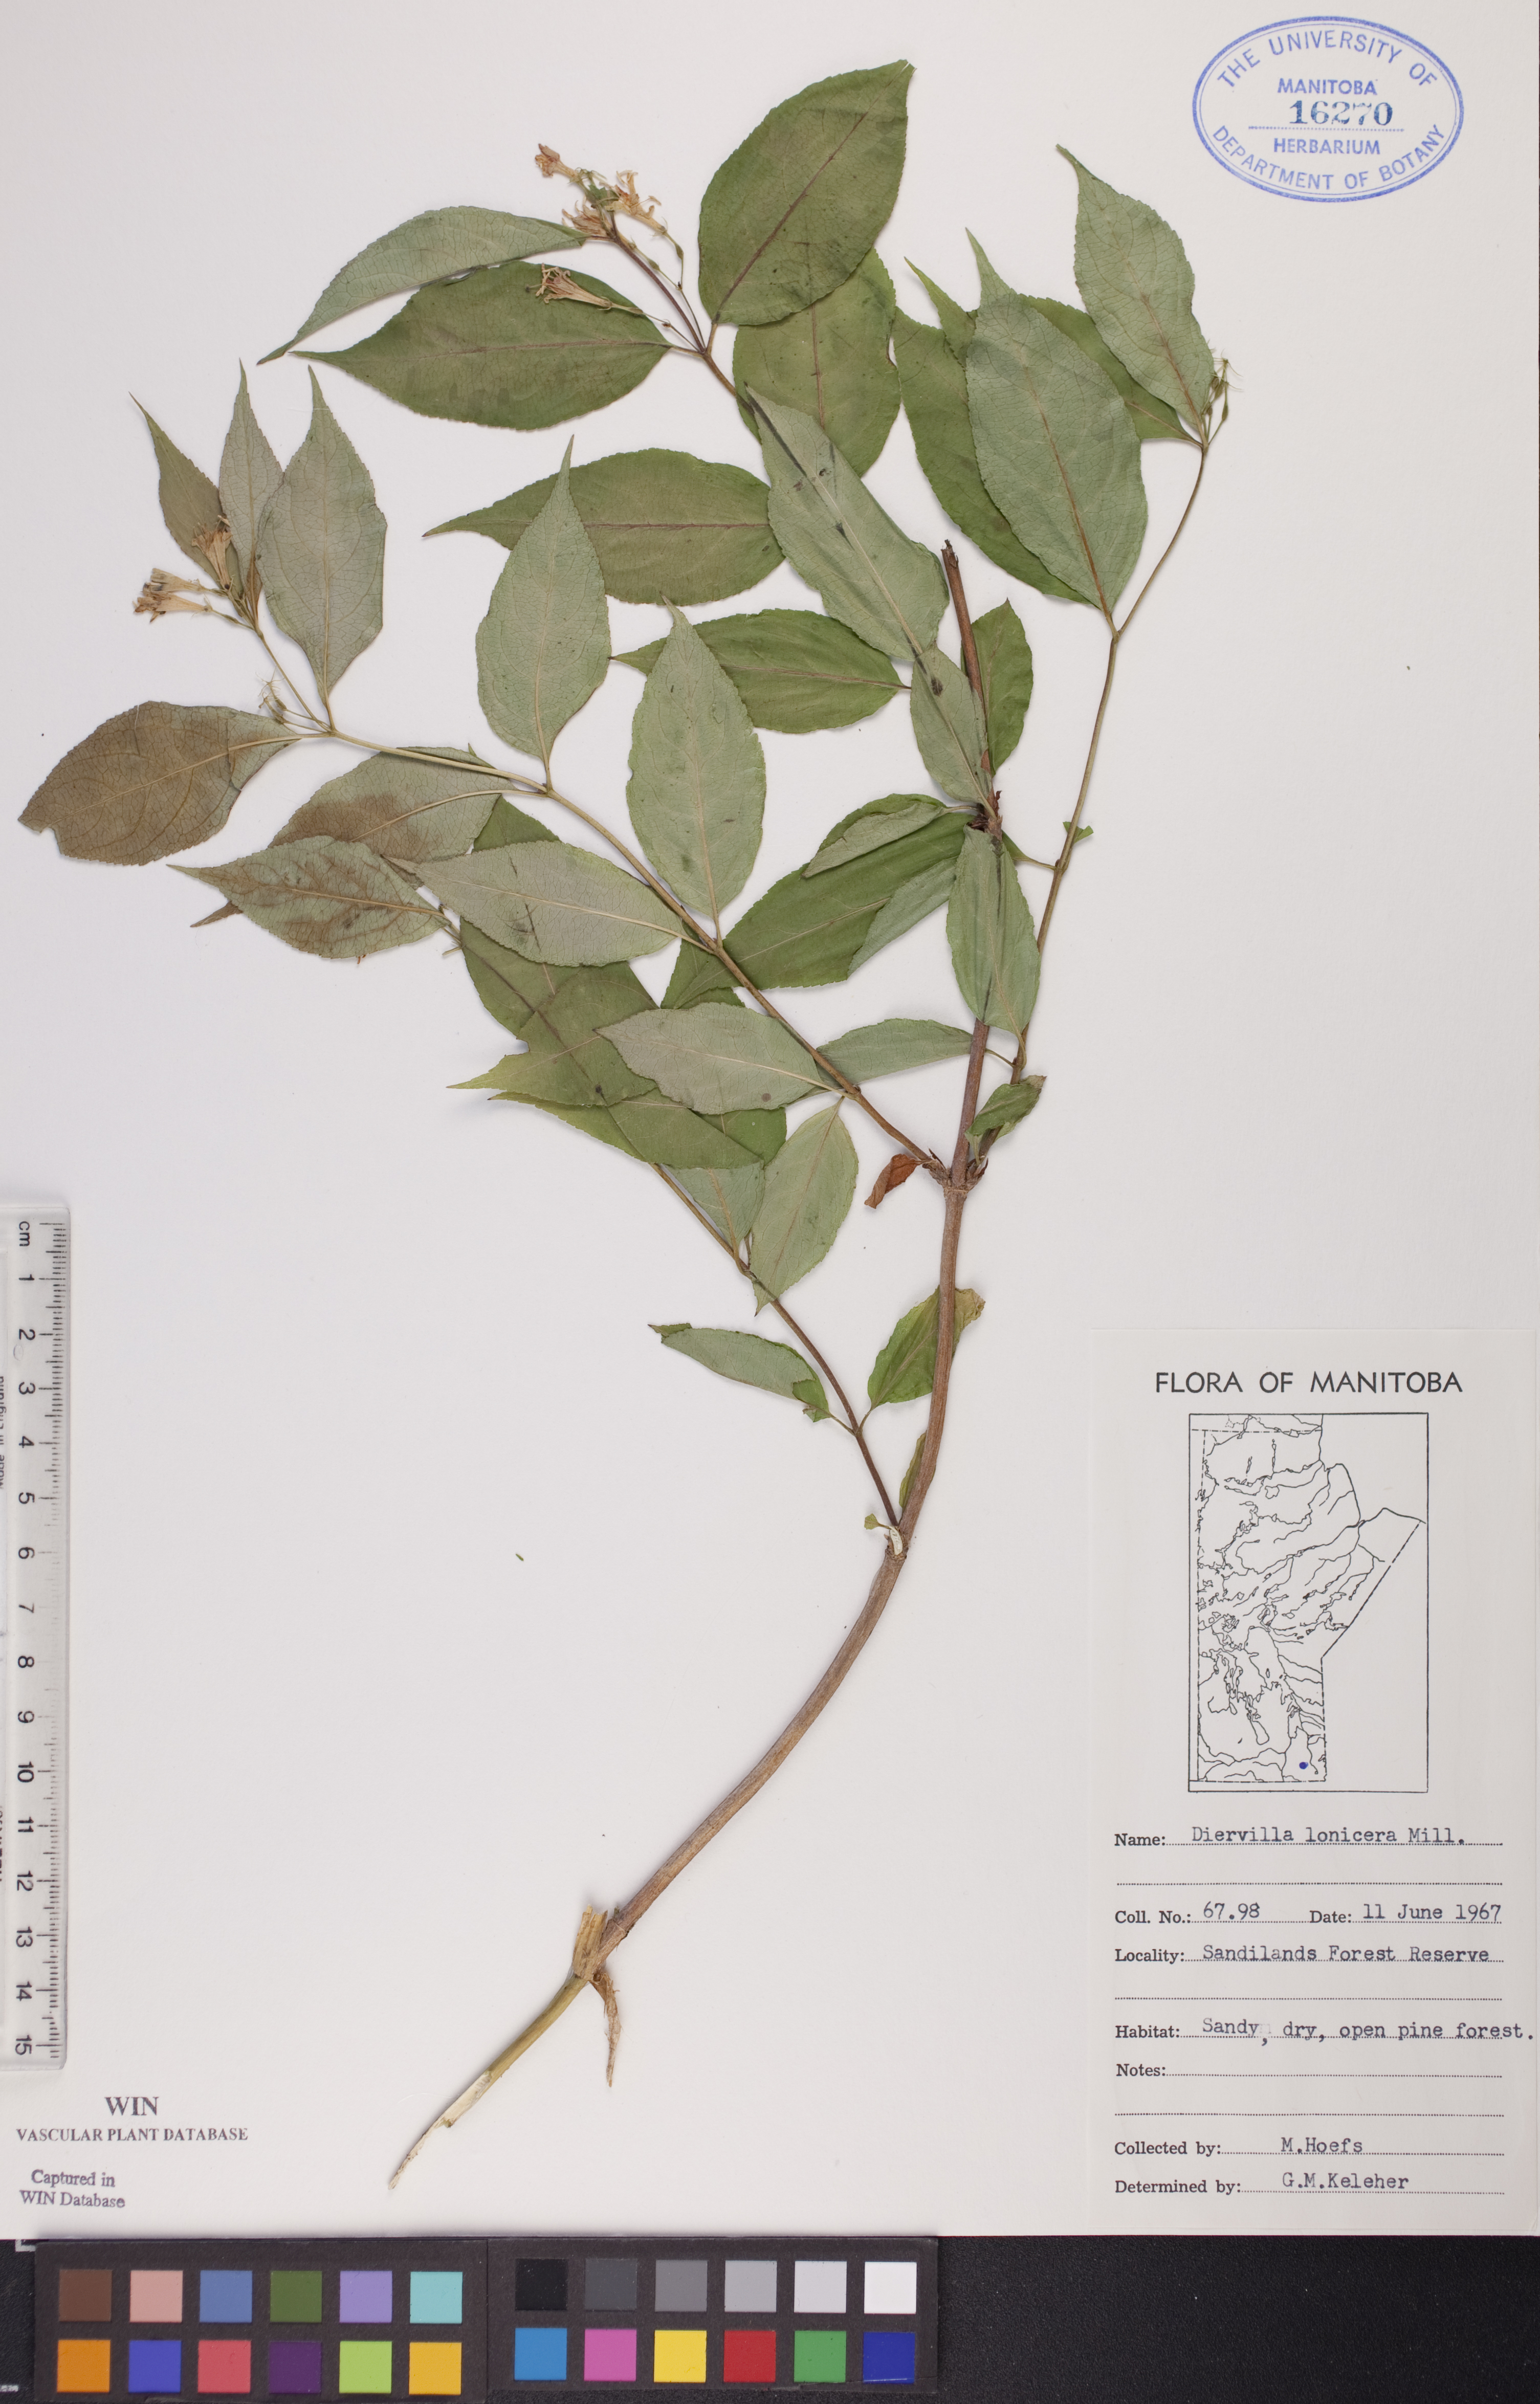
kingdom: Plantae
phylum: Tracheophyta
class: Magnoliopsida
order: Dipsacales
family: Caprifoliaceae
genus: Diervilla
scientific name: Diervilla lonicera
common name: Bush-honeysuckle
